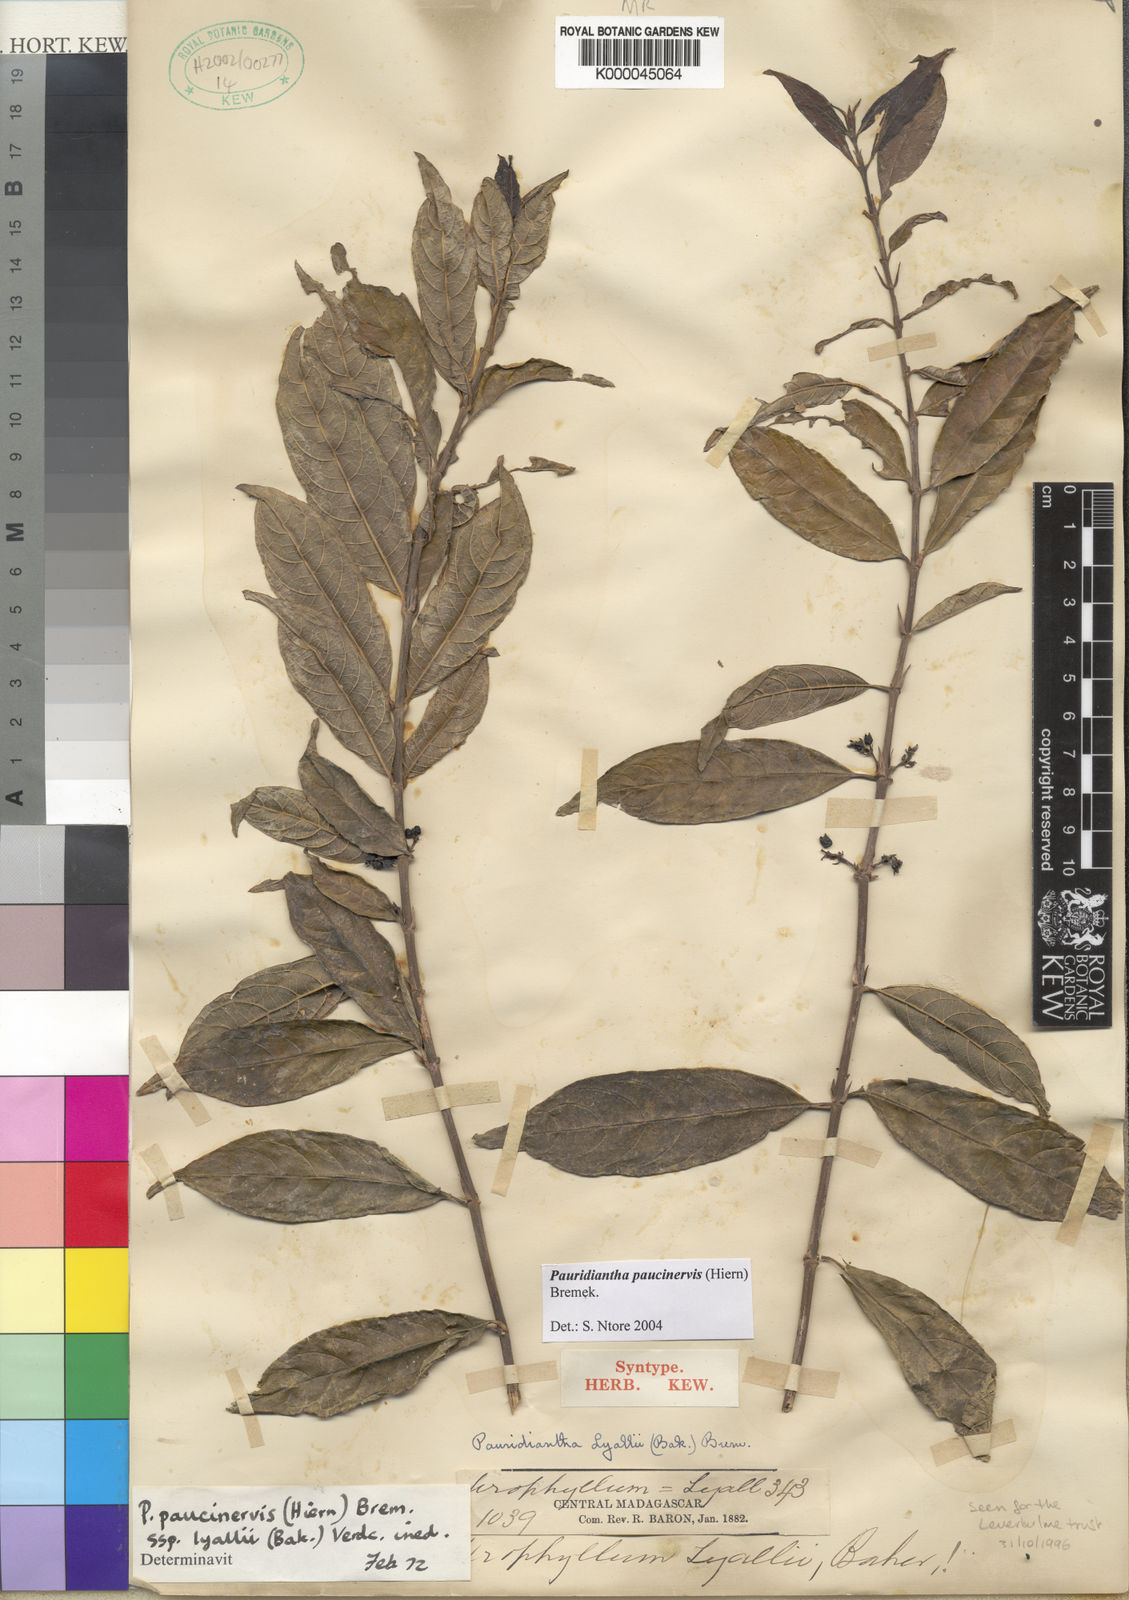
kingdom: Plantae
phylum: Tracheophyta
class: Magnoliopsida
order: Gentianales
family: Rubiaceae
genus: Pauridiantha
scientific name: Pauridiantha paucinervis
